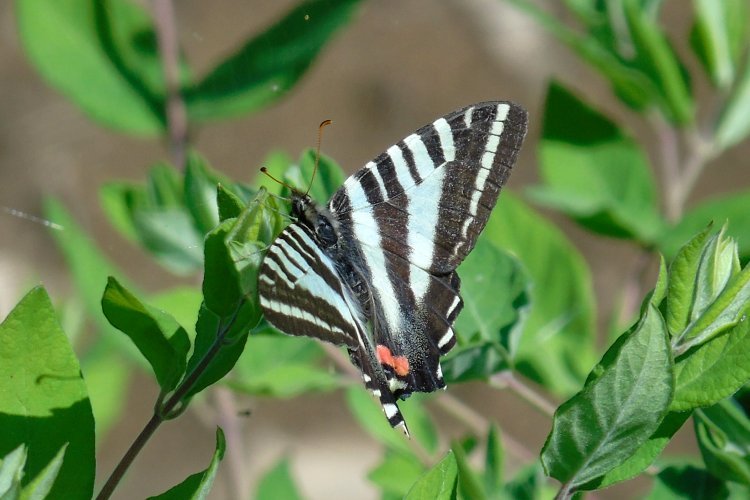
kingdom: Animalia
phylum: Arthropoda
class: Insecta
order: Lepidoptera
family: Papilionidae
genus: Protographium
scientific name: Protographium marcellus
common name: Zebra Swallowtail
